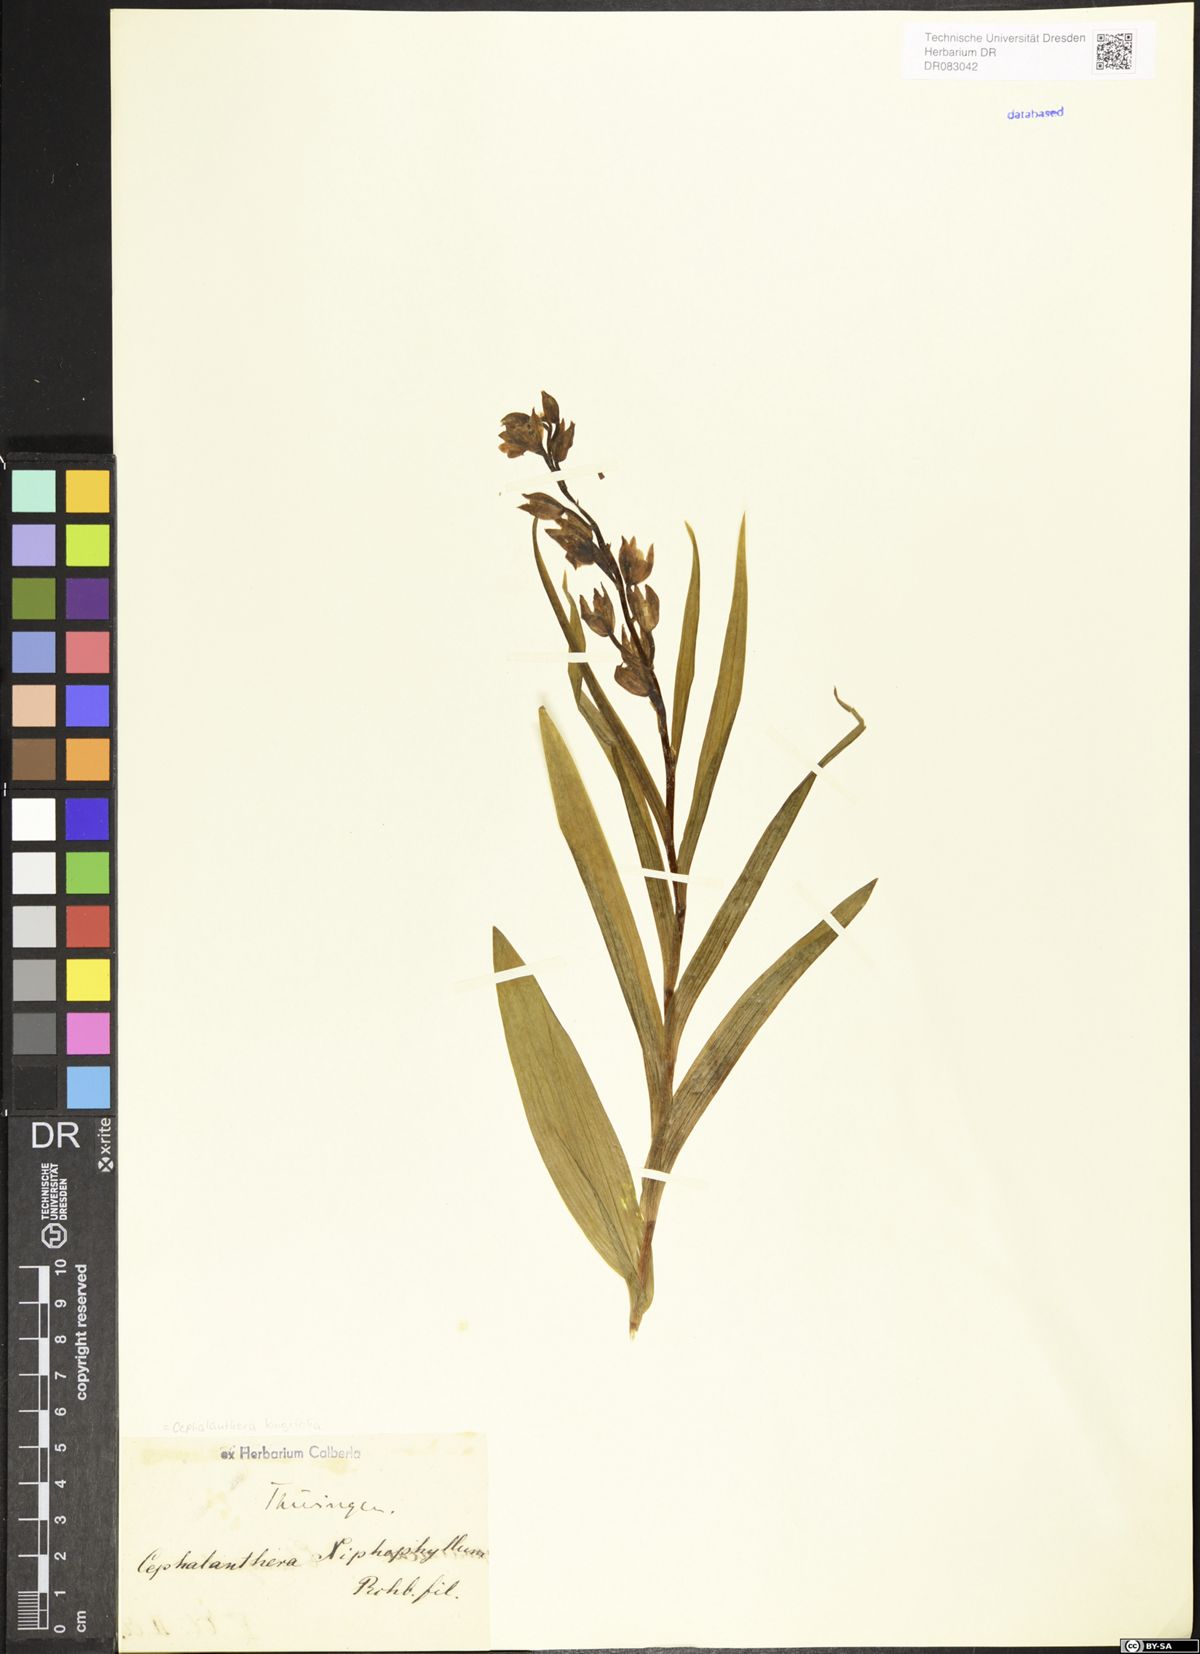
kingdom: Plantae
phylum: Tracheophyta
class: Liliopsida
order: Asparagales
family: Orchidaceae
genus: Cephalanthera
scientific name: Cephalanthera longifolia
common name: Narrow-leaved helleborine
